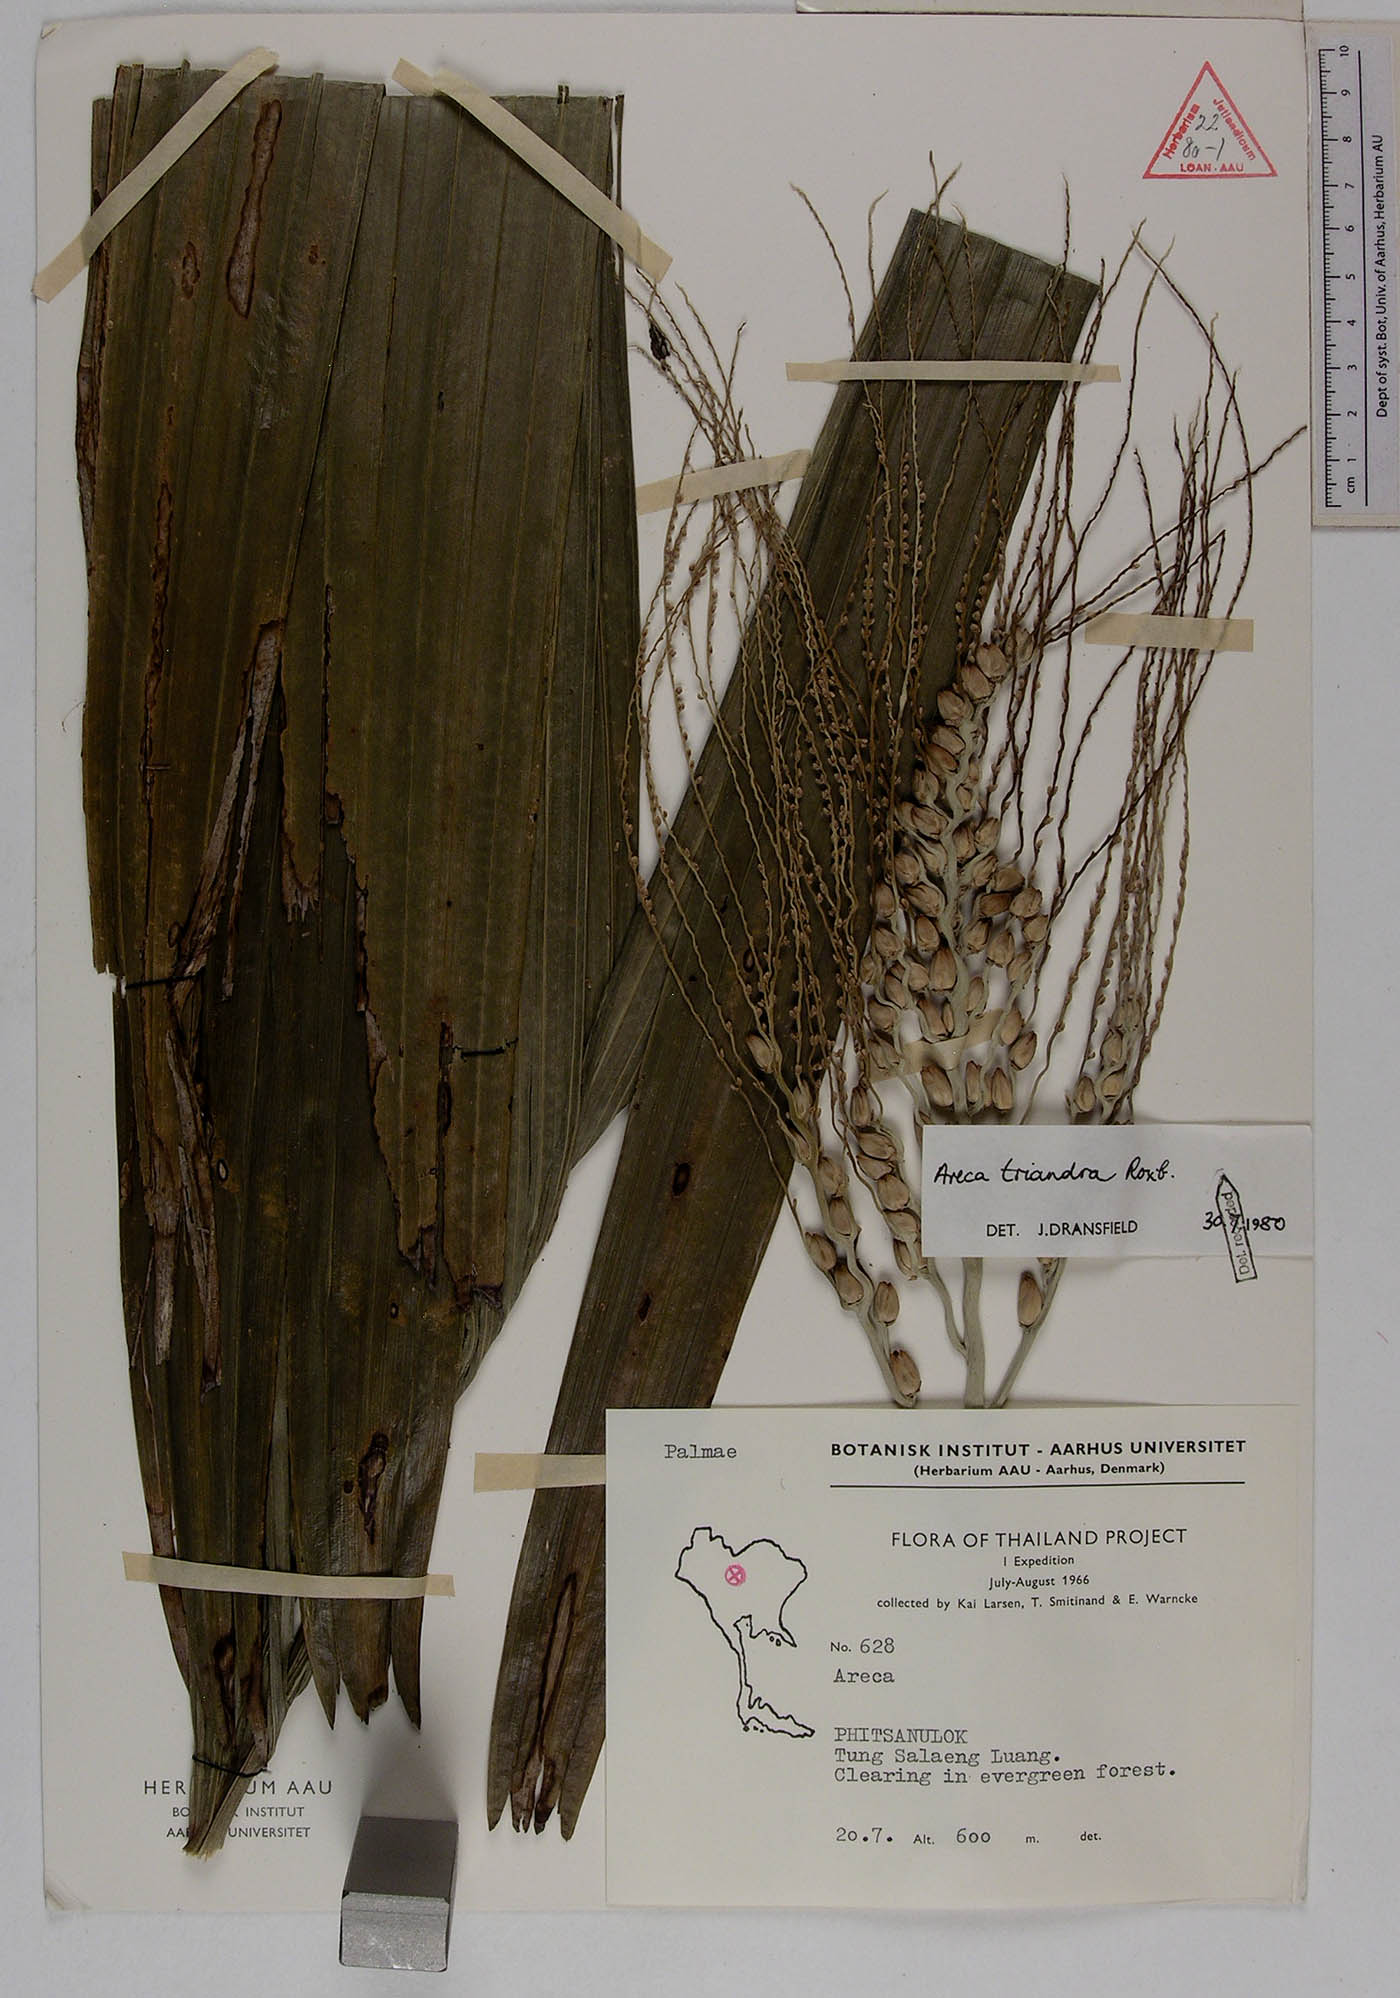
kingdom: Plantae
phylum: Tracheophyta
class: Liliopsida
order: Arecales
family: Arecaceae
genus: Areca
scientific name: Areca triandra
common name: Australian areca palm
